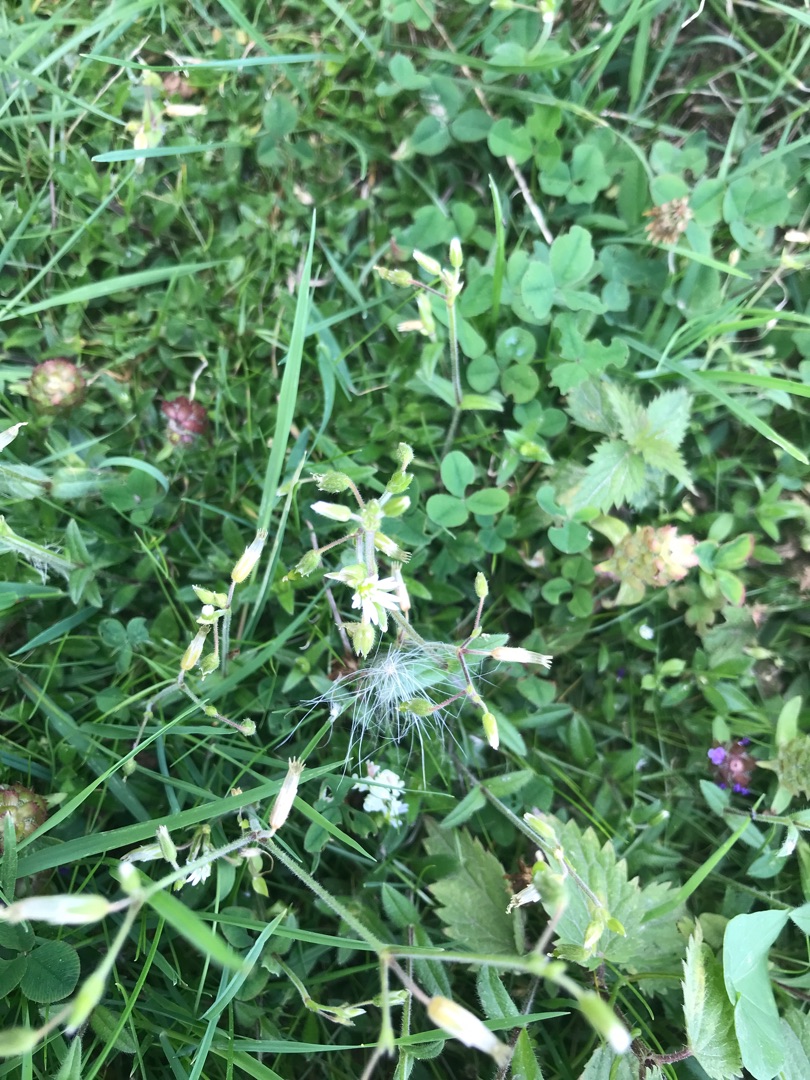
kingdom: Plantae
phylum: Tracheophyta
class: Magnoliopsida
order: Caryophyllales
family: Caryophyllaceae
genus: Cerastium
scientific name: Cerastium fontanum
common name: Almindelig hønsetarm
